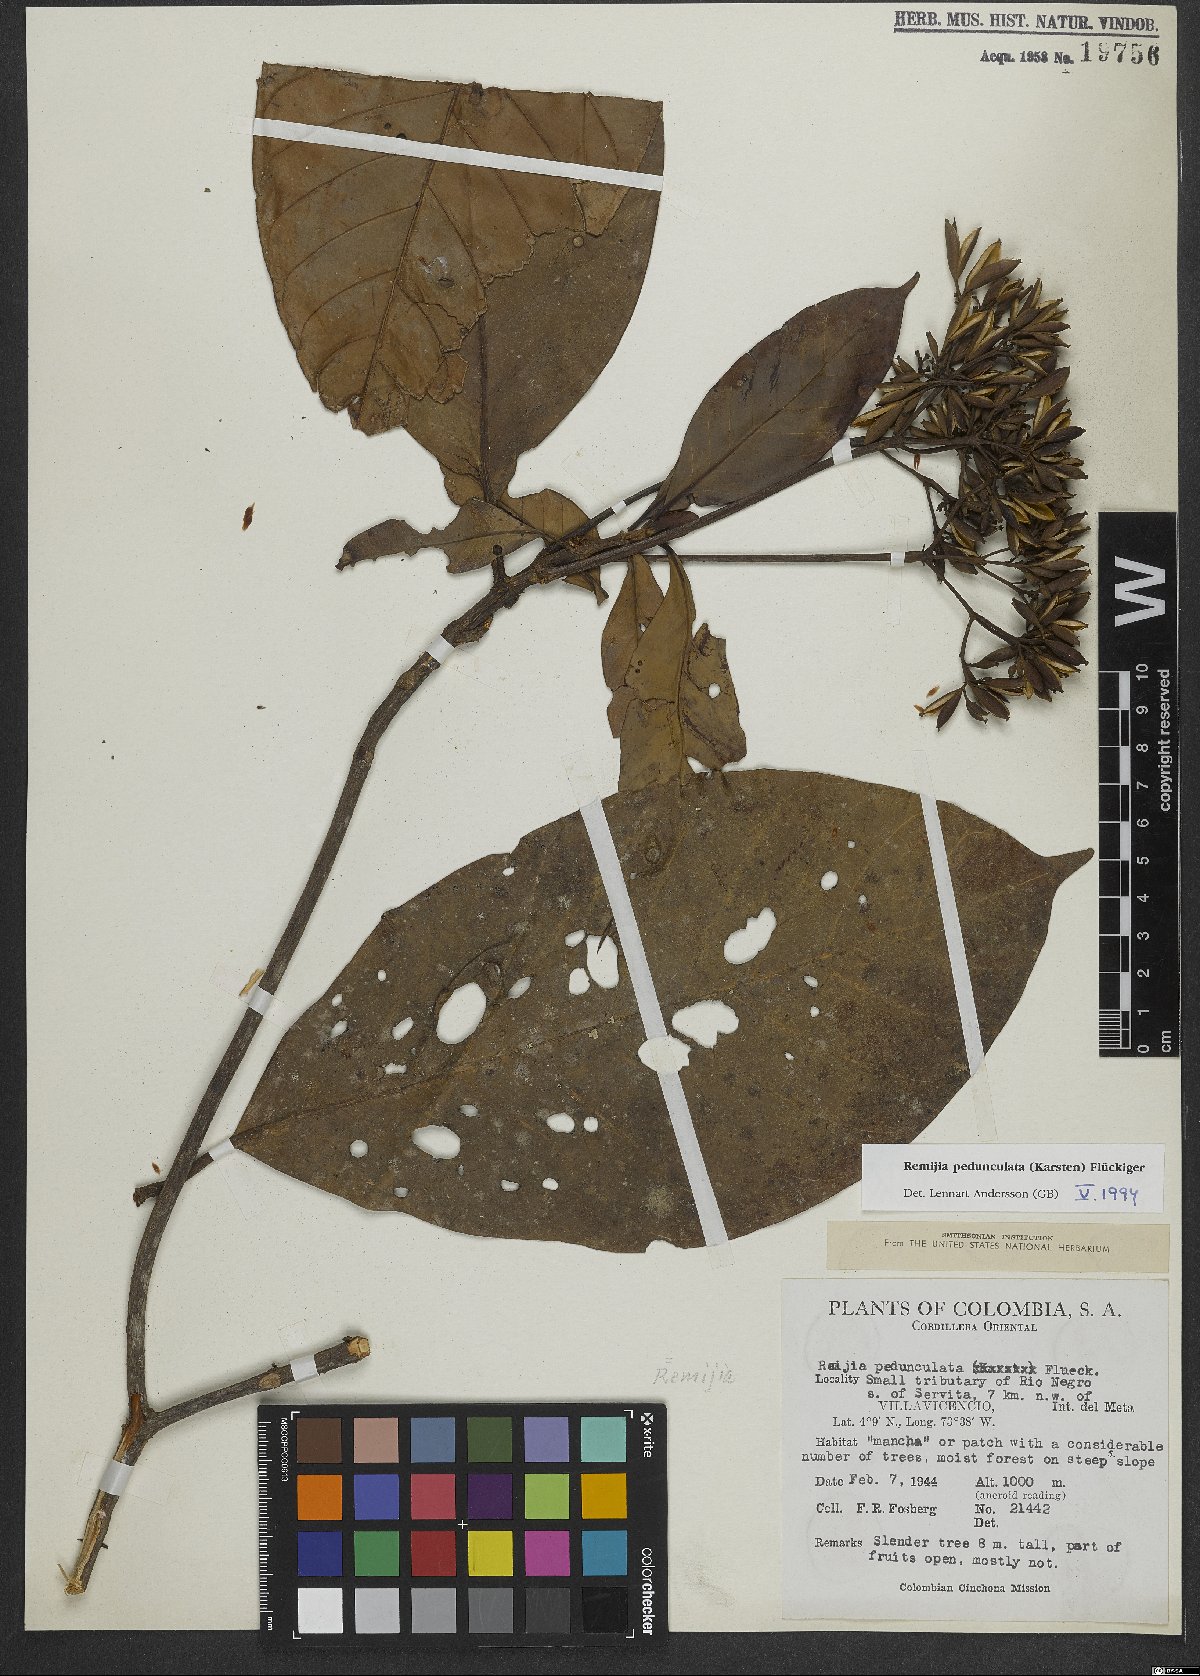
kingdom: Plantae
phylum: Tracheophyta
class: Magnoliopsida
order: Gentianales
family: Rubiaceae
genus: Ciliosemina
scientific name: Ciliosemina pedunculata
